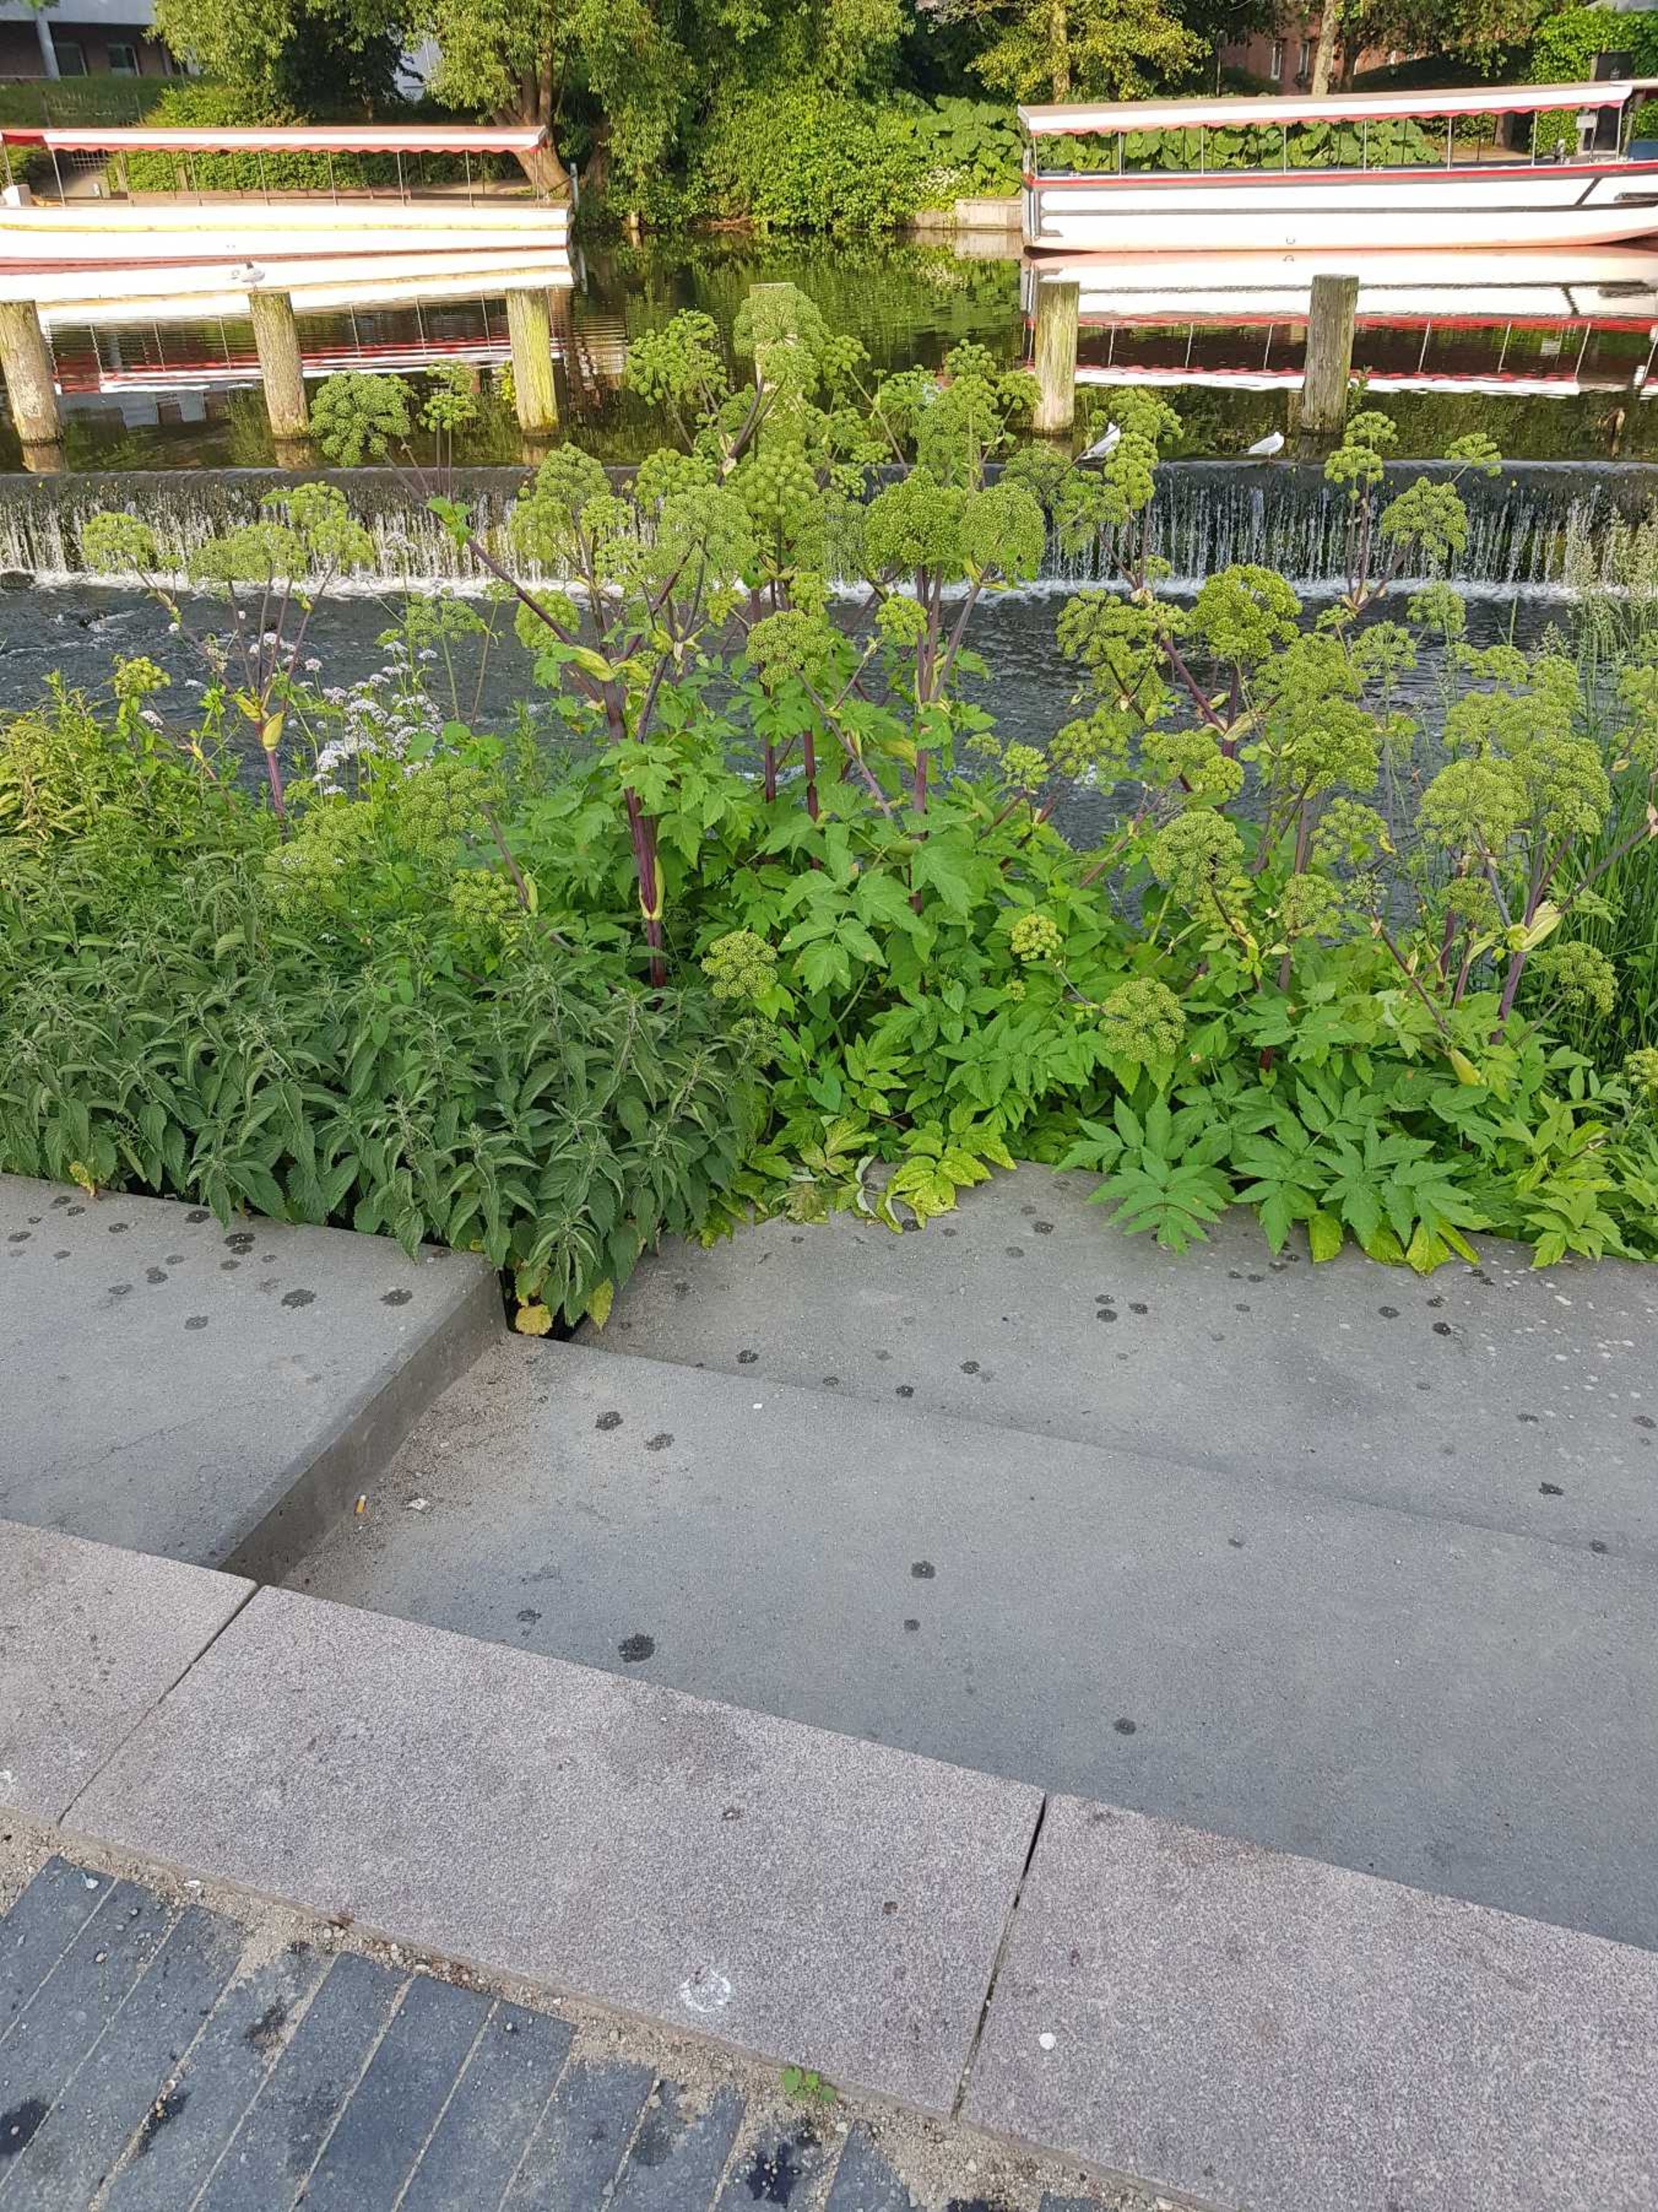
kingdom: Plantae
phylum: Tracheophyta
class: Magnoliopsida
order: Apiales
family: Apiaceae
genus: Angelica
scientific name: Angelica archangelica
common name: Kvan
